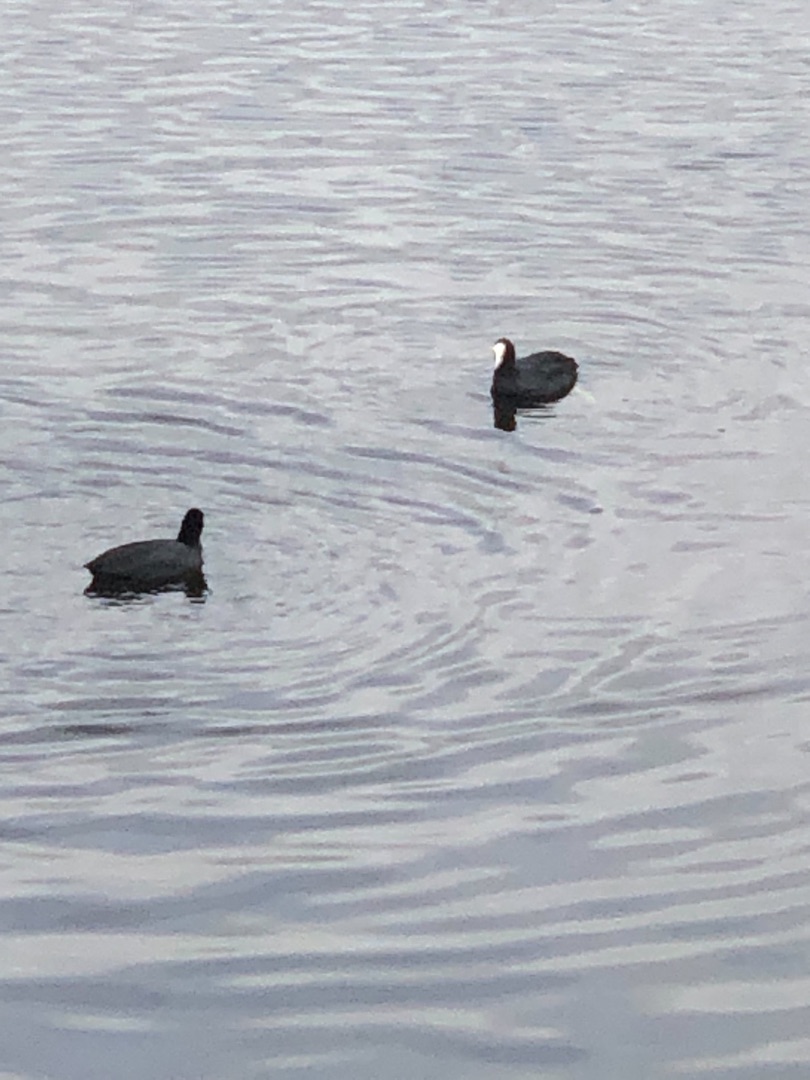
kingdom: Animalia
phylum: Chordata
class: Aves
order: Gruiformes
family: Rallidae
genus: Fulica
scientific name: Fulica atra
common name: Blishøne
